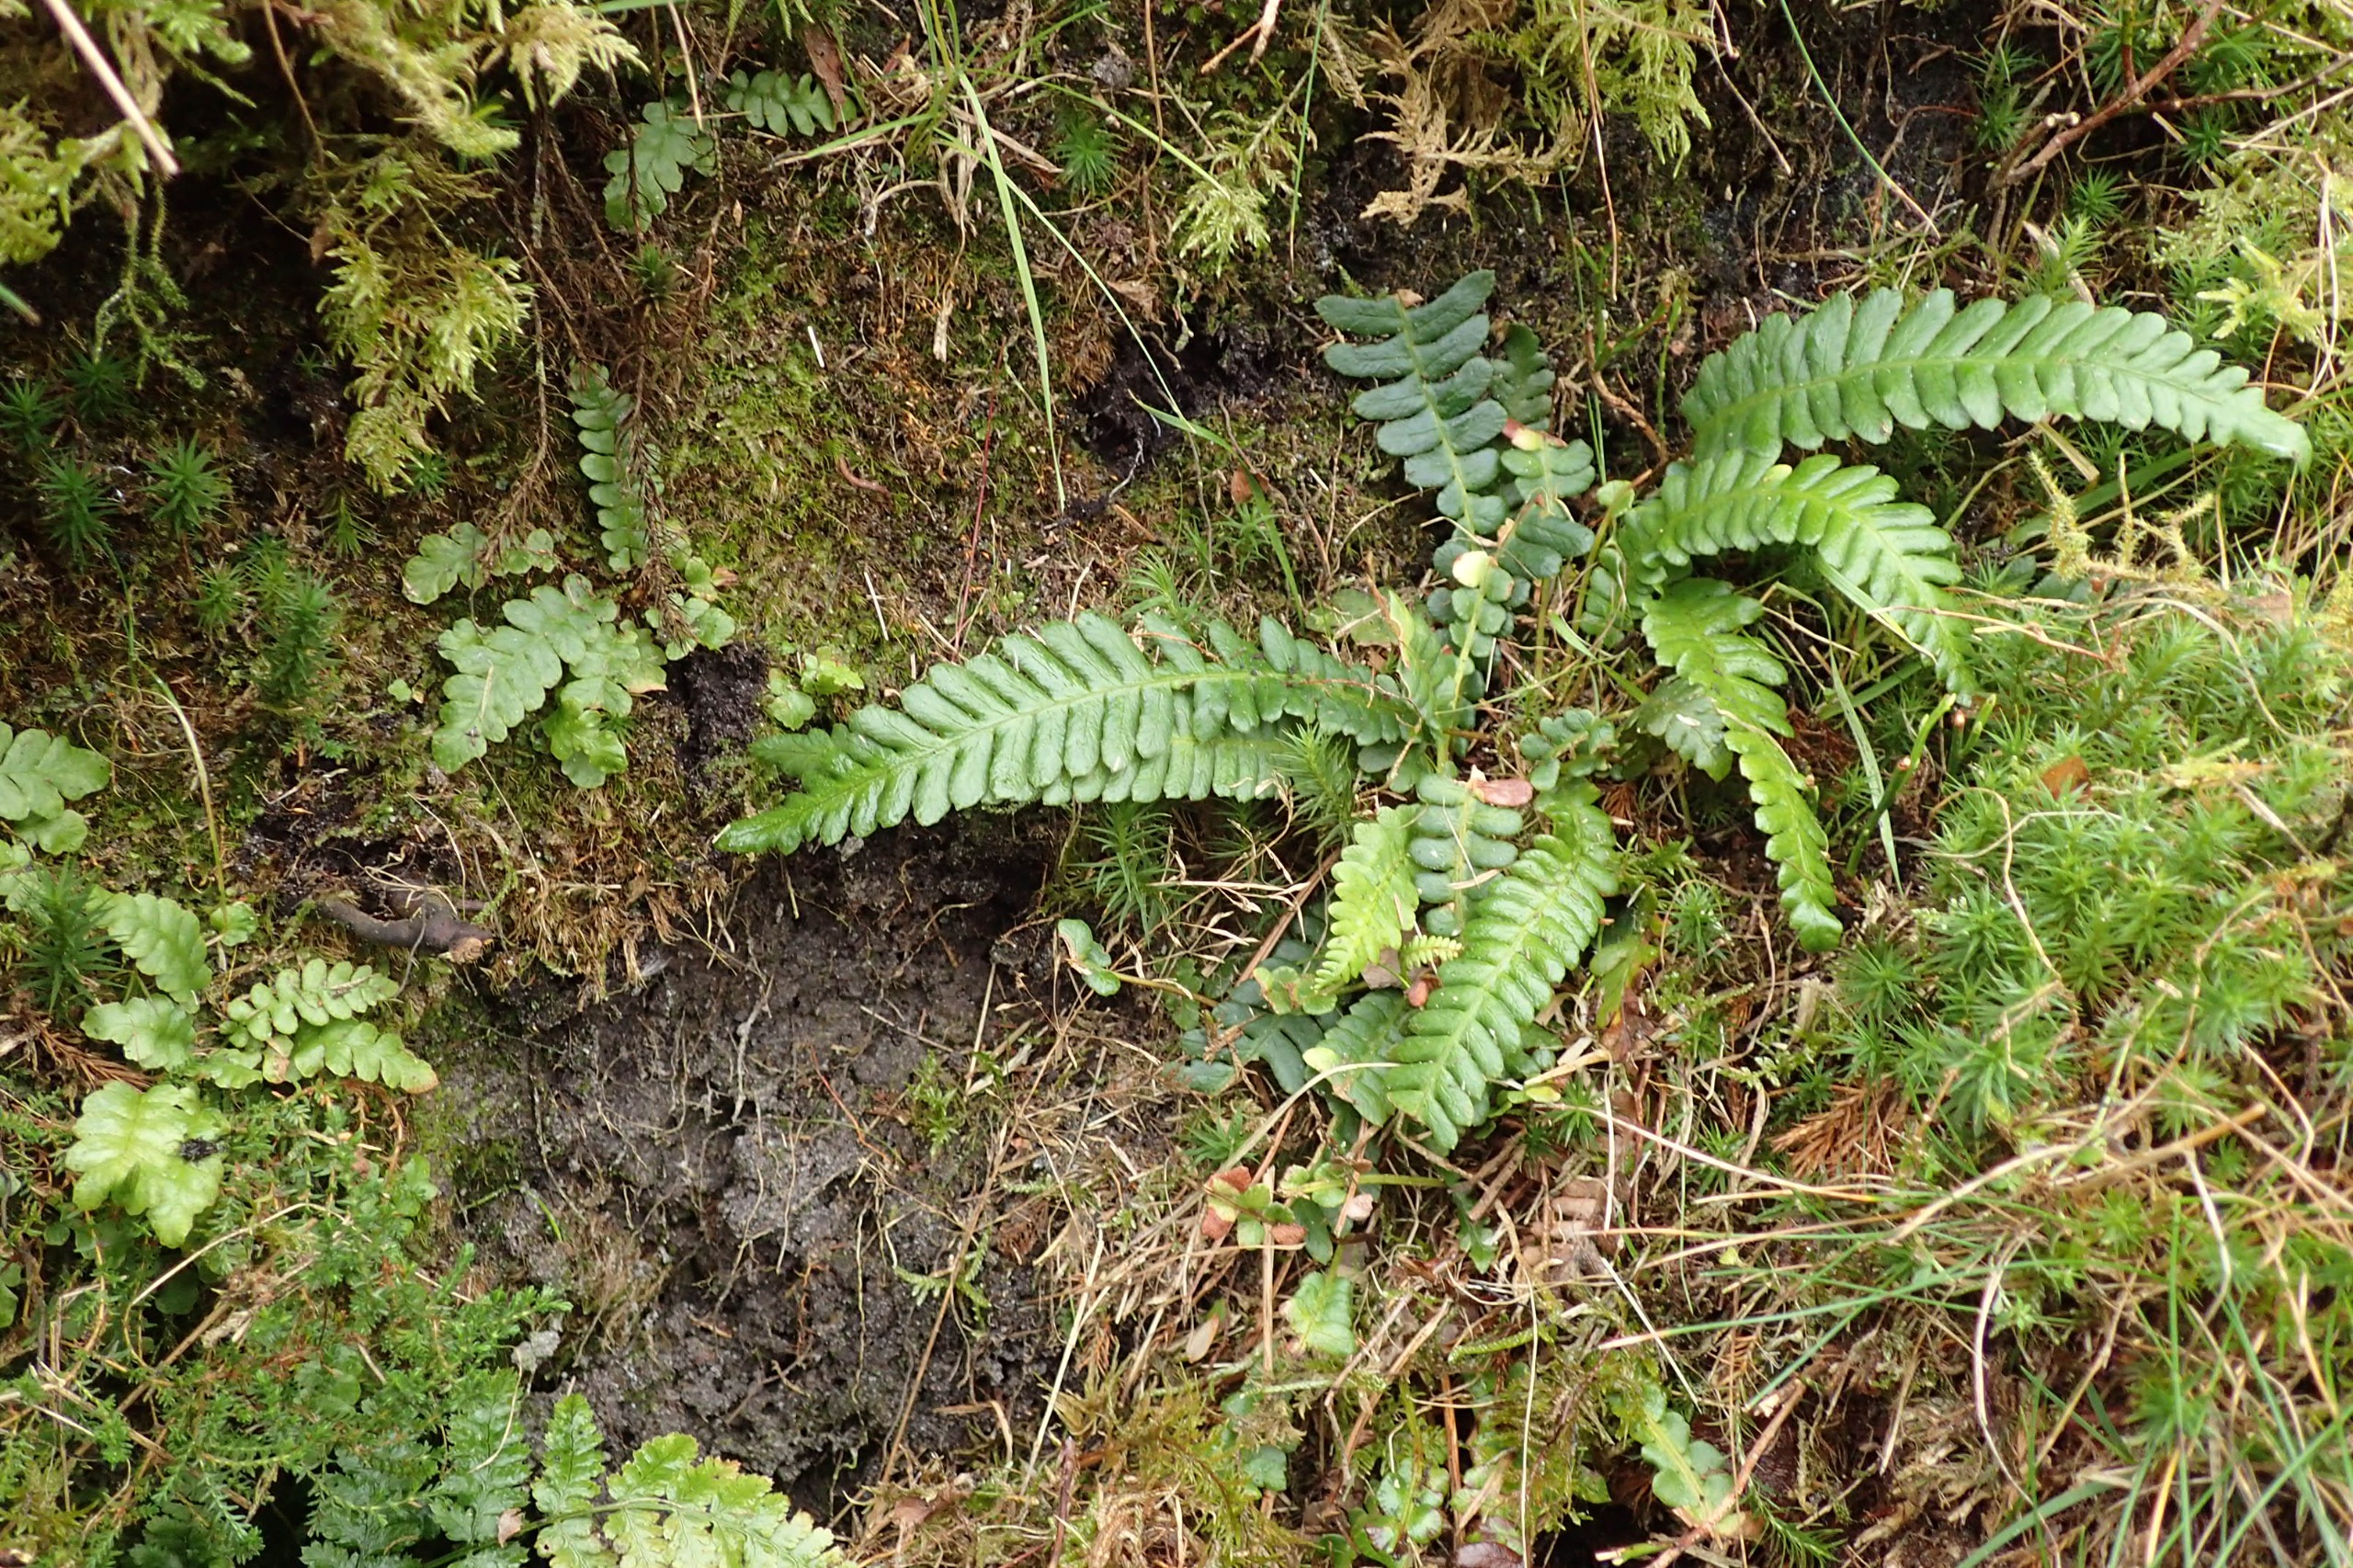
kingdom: Plantae
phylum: Tracheophyta
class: Polypodiopsida
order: Polypodiales
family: Blechnaceae
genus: Struthiopteris
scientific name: Struthiopteris spicant
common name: Kambregne
